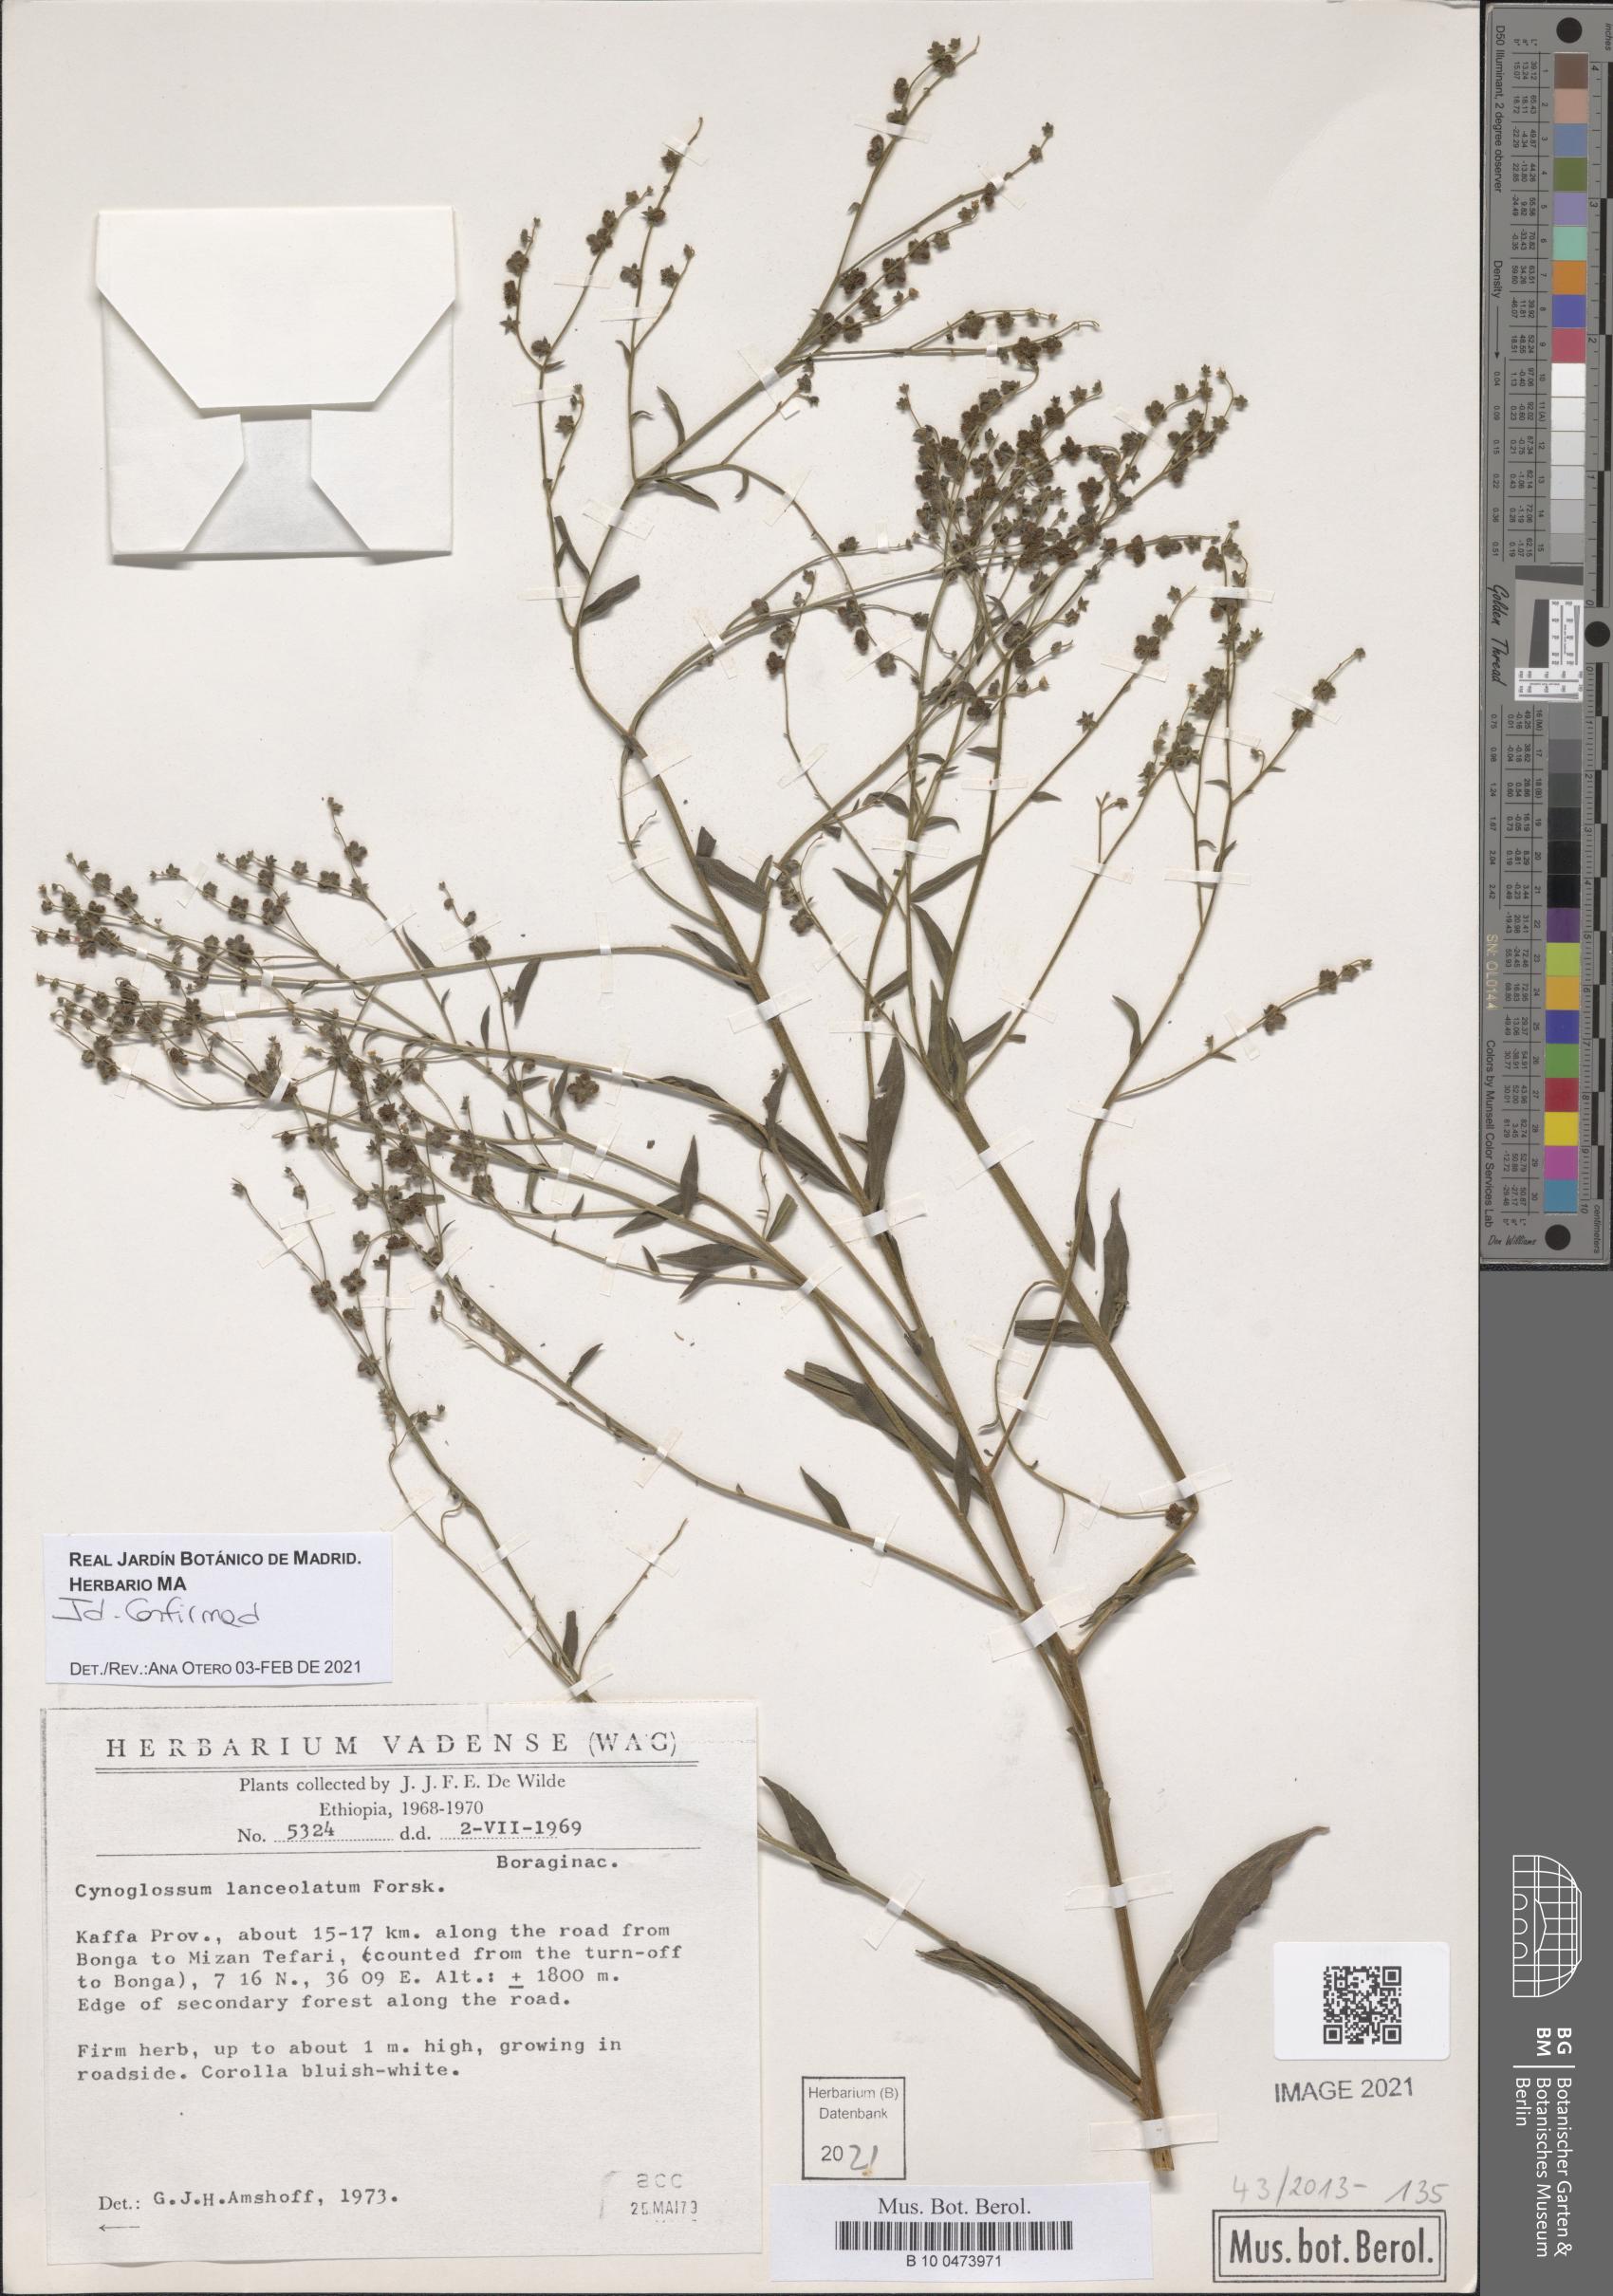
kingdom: Plantae
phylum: Tracheophyta
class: Magnoliopsida
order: Boraginales
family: Boraginaceae
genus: Paracynoglossum
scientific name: Paracynoglossum lanceolatum
